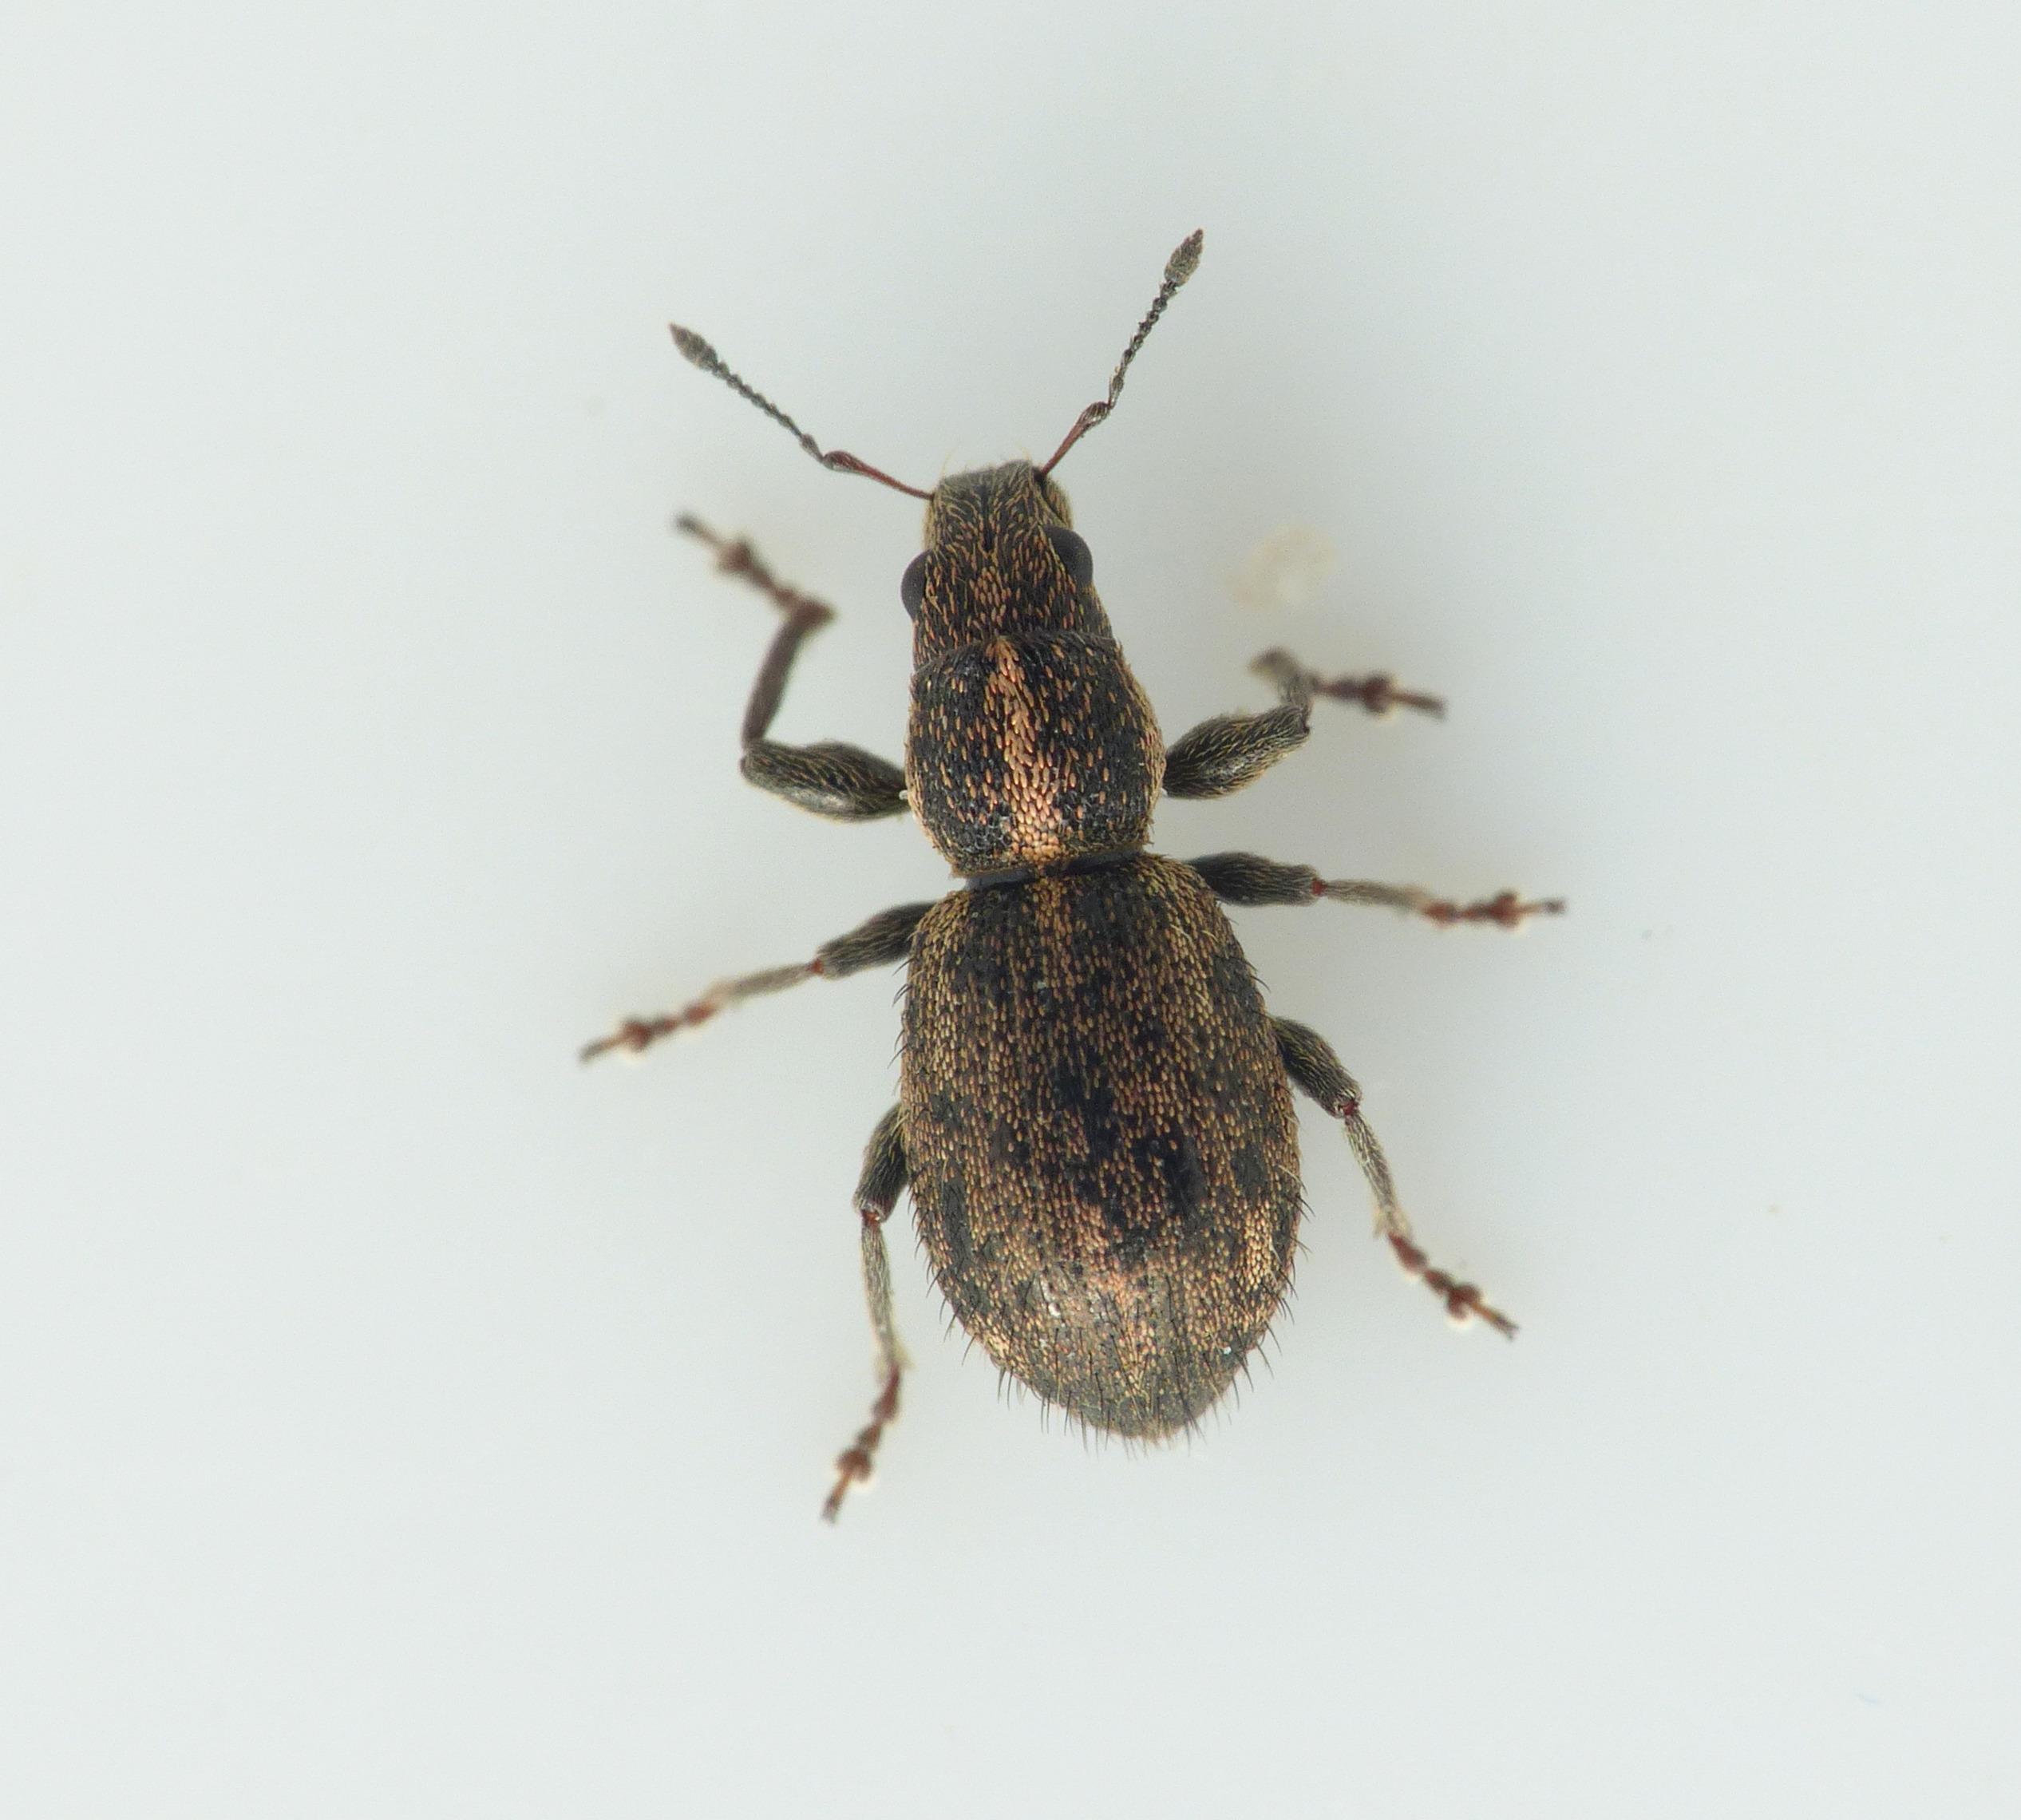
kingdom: Animalia
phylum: Arthropoda
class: Insecta
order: Coleoptera
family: Curculionidae
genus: Andrion
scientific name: Andrion regensteinense
